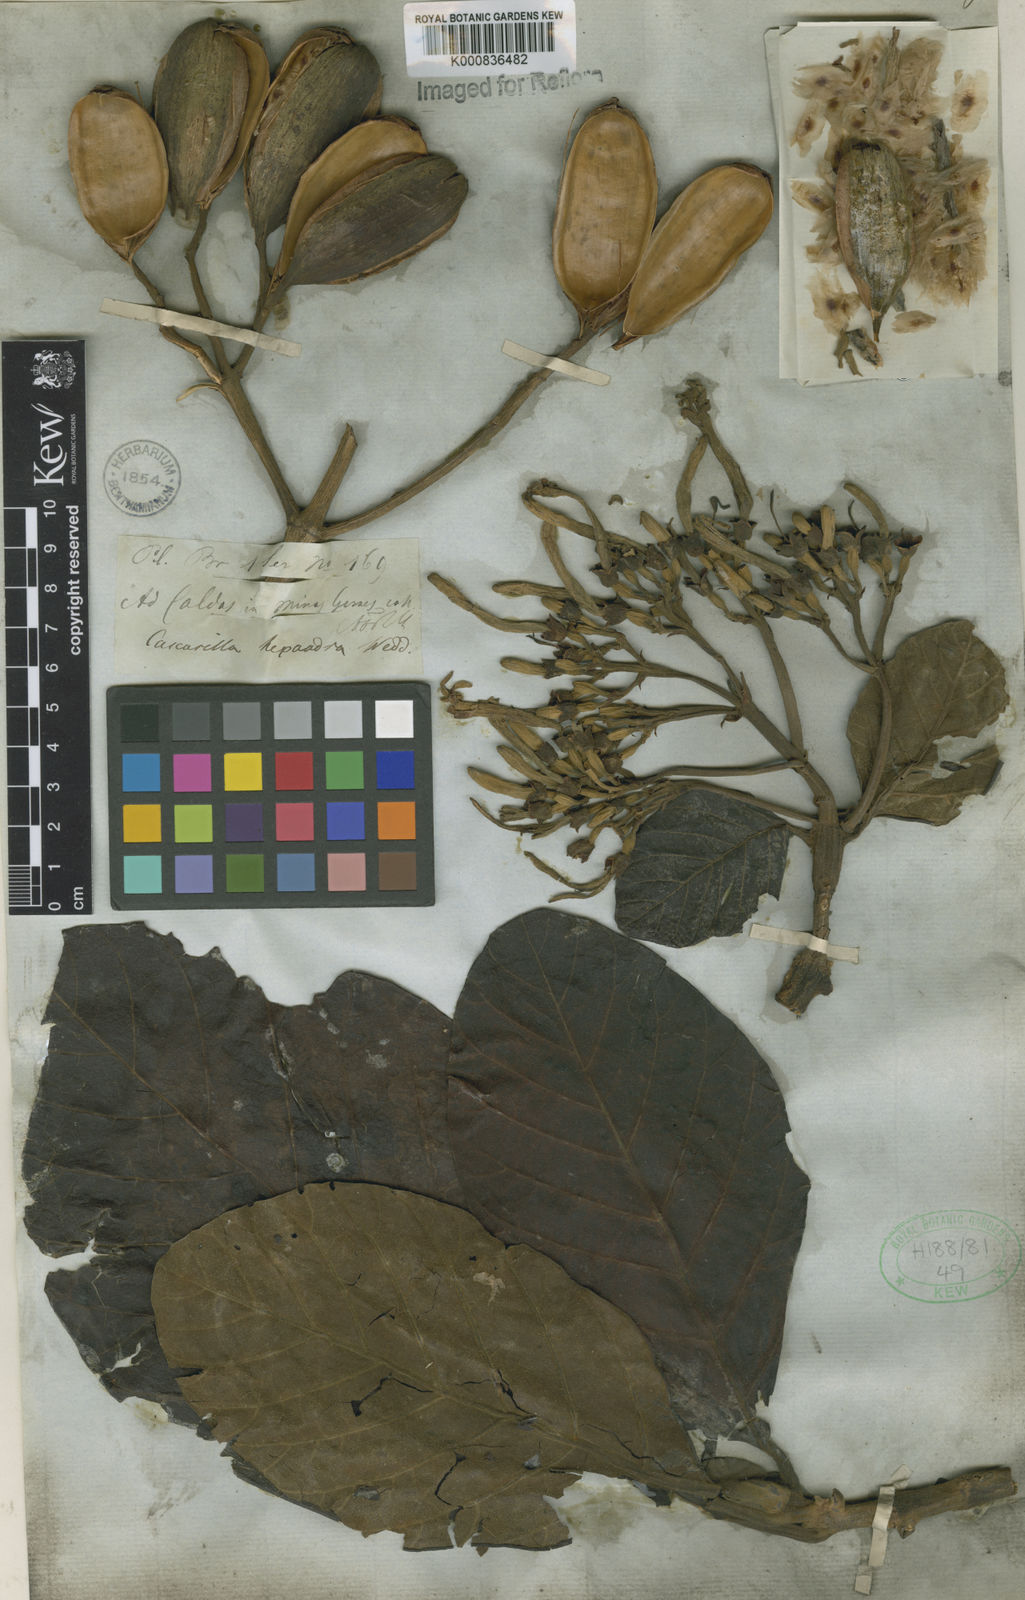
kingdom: Plantae
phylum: Tracheophyta
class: Magnoliopsida
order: Gentianales
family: Rubiaceae
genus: Ladenbergia
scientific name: Ladenbergia hexandra
